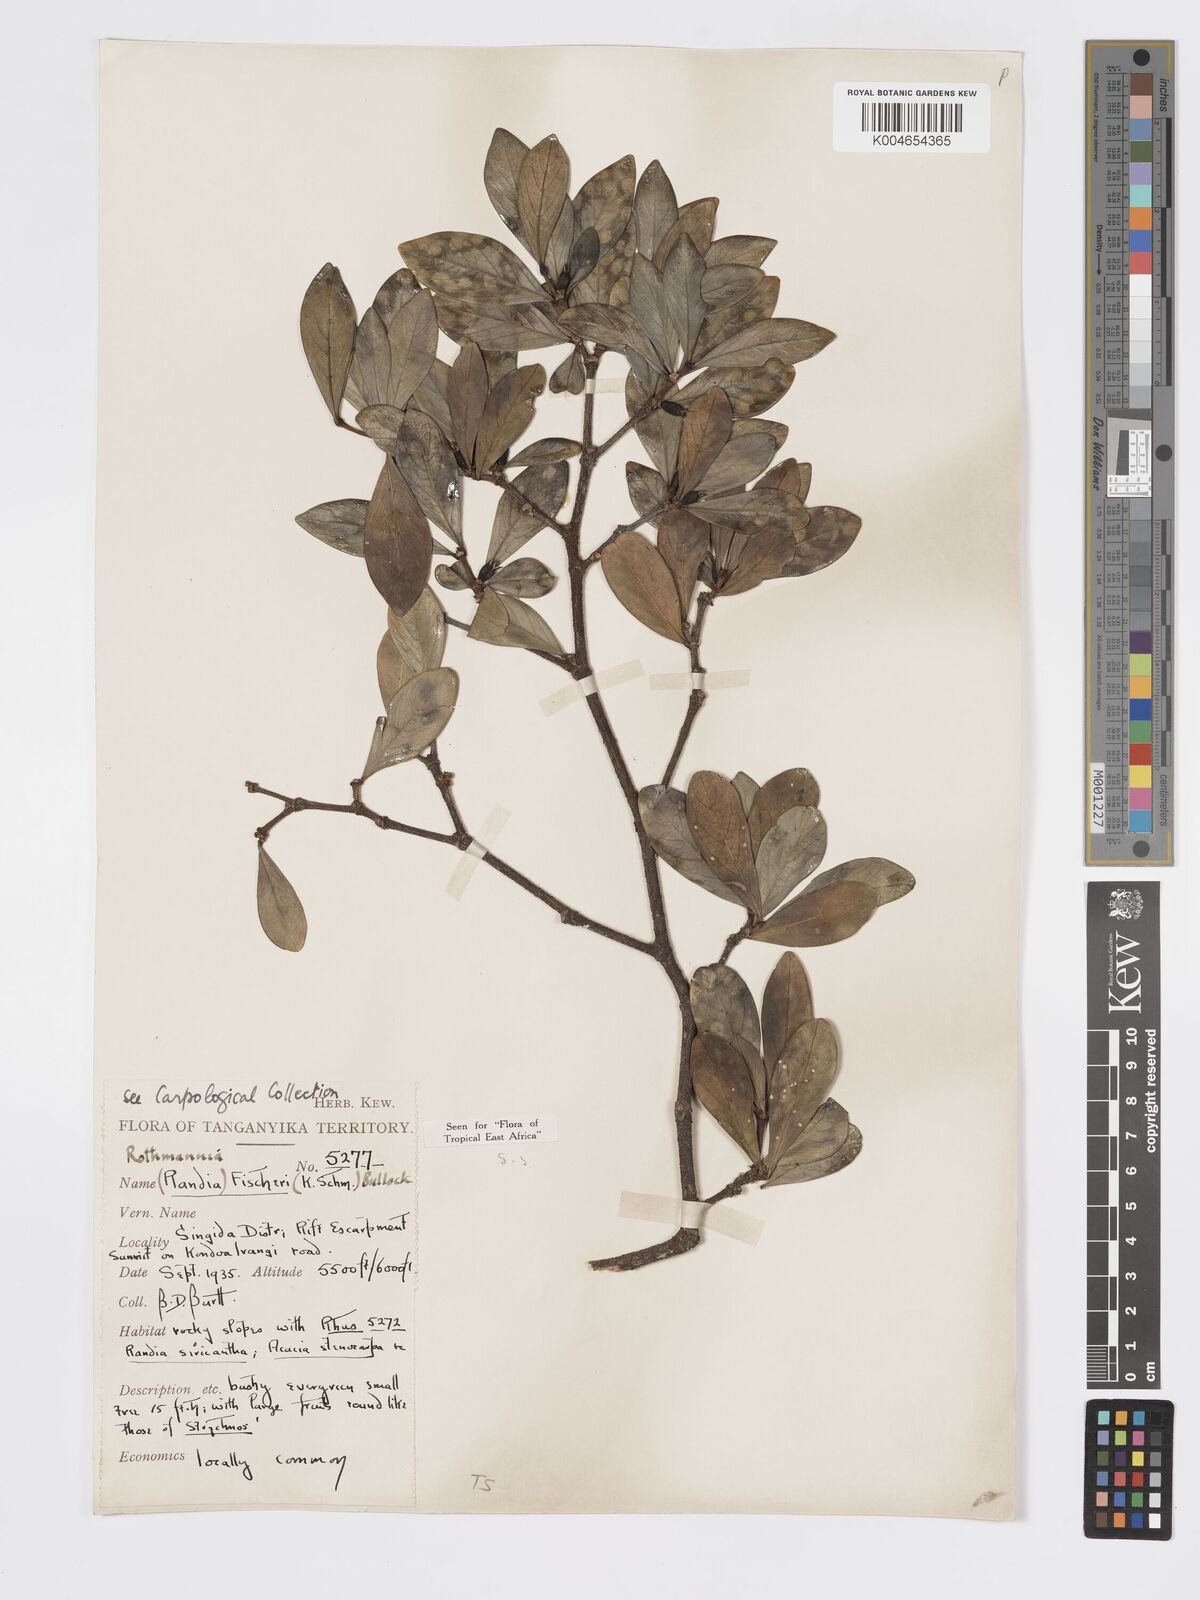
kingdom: Plantae
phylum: Tracheophyta
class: Magnoliopsida
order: Gentianales
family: Rubiaceae
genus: Rothmannia
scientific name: Rothmannia fischeri
